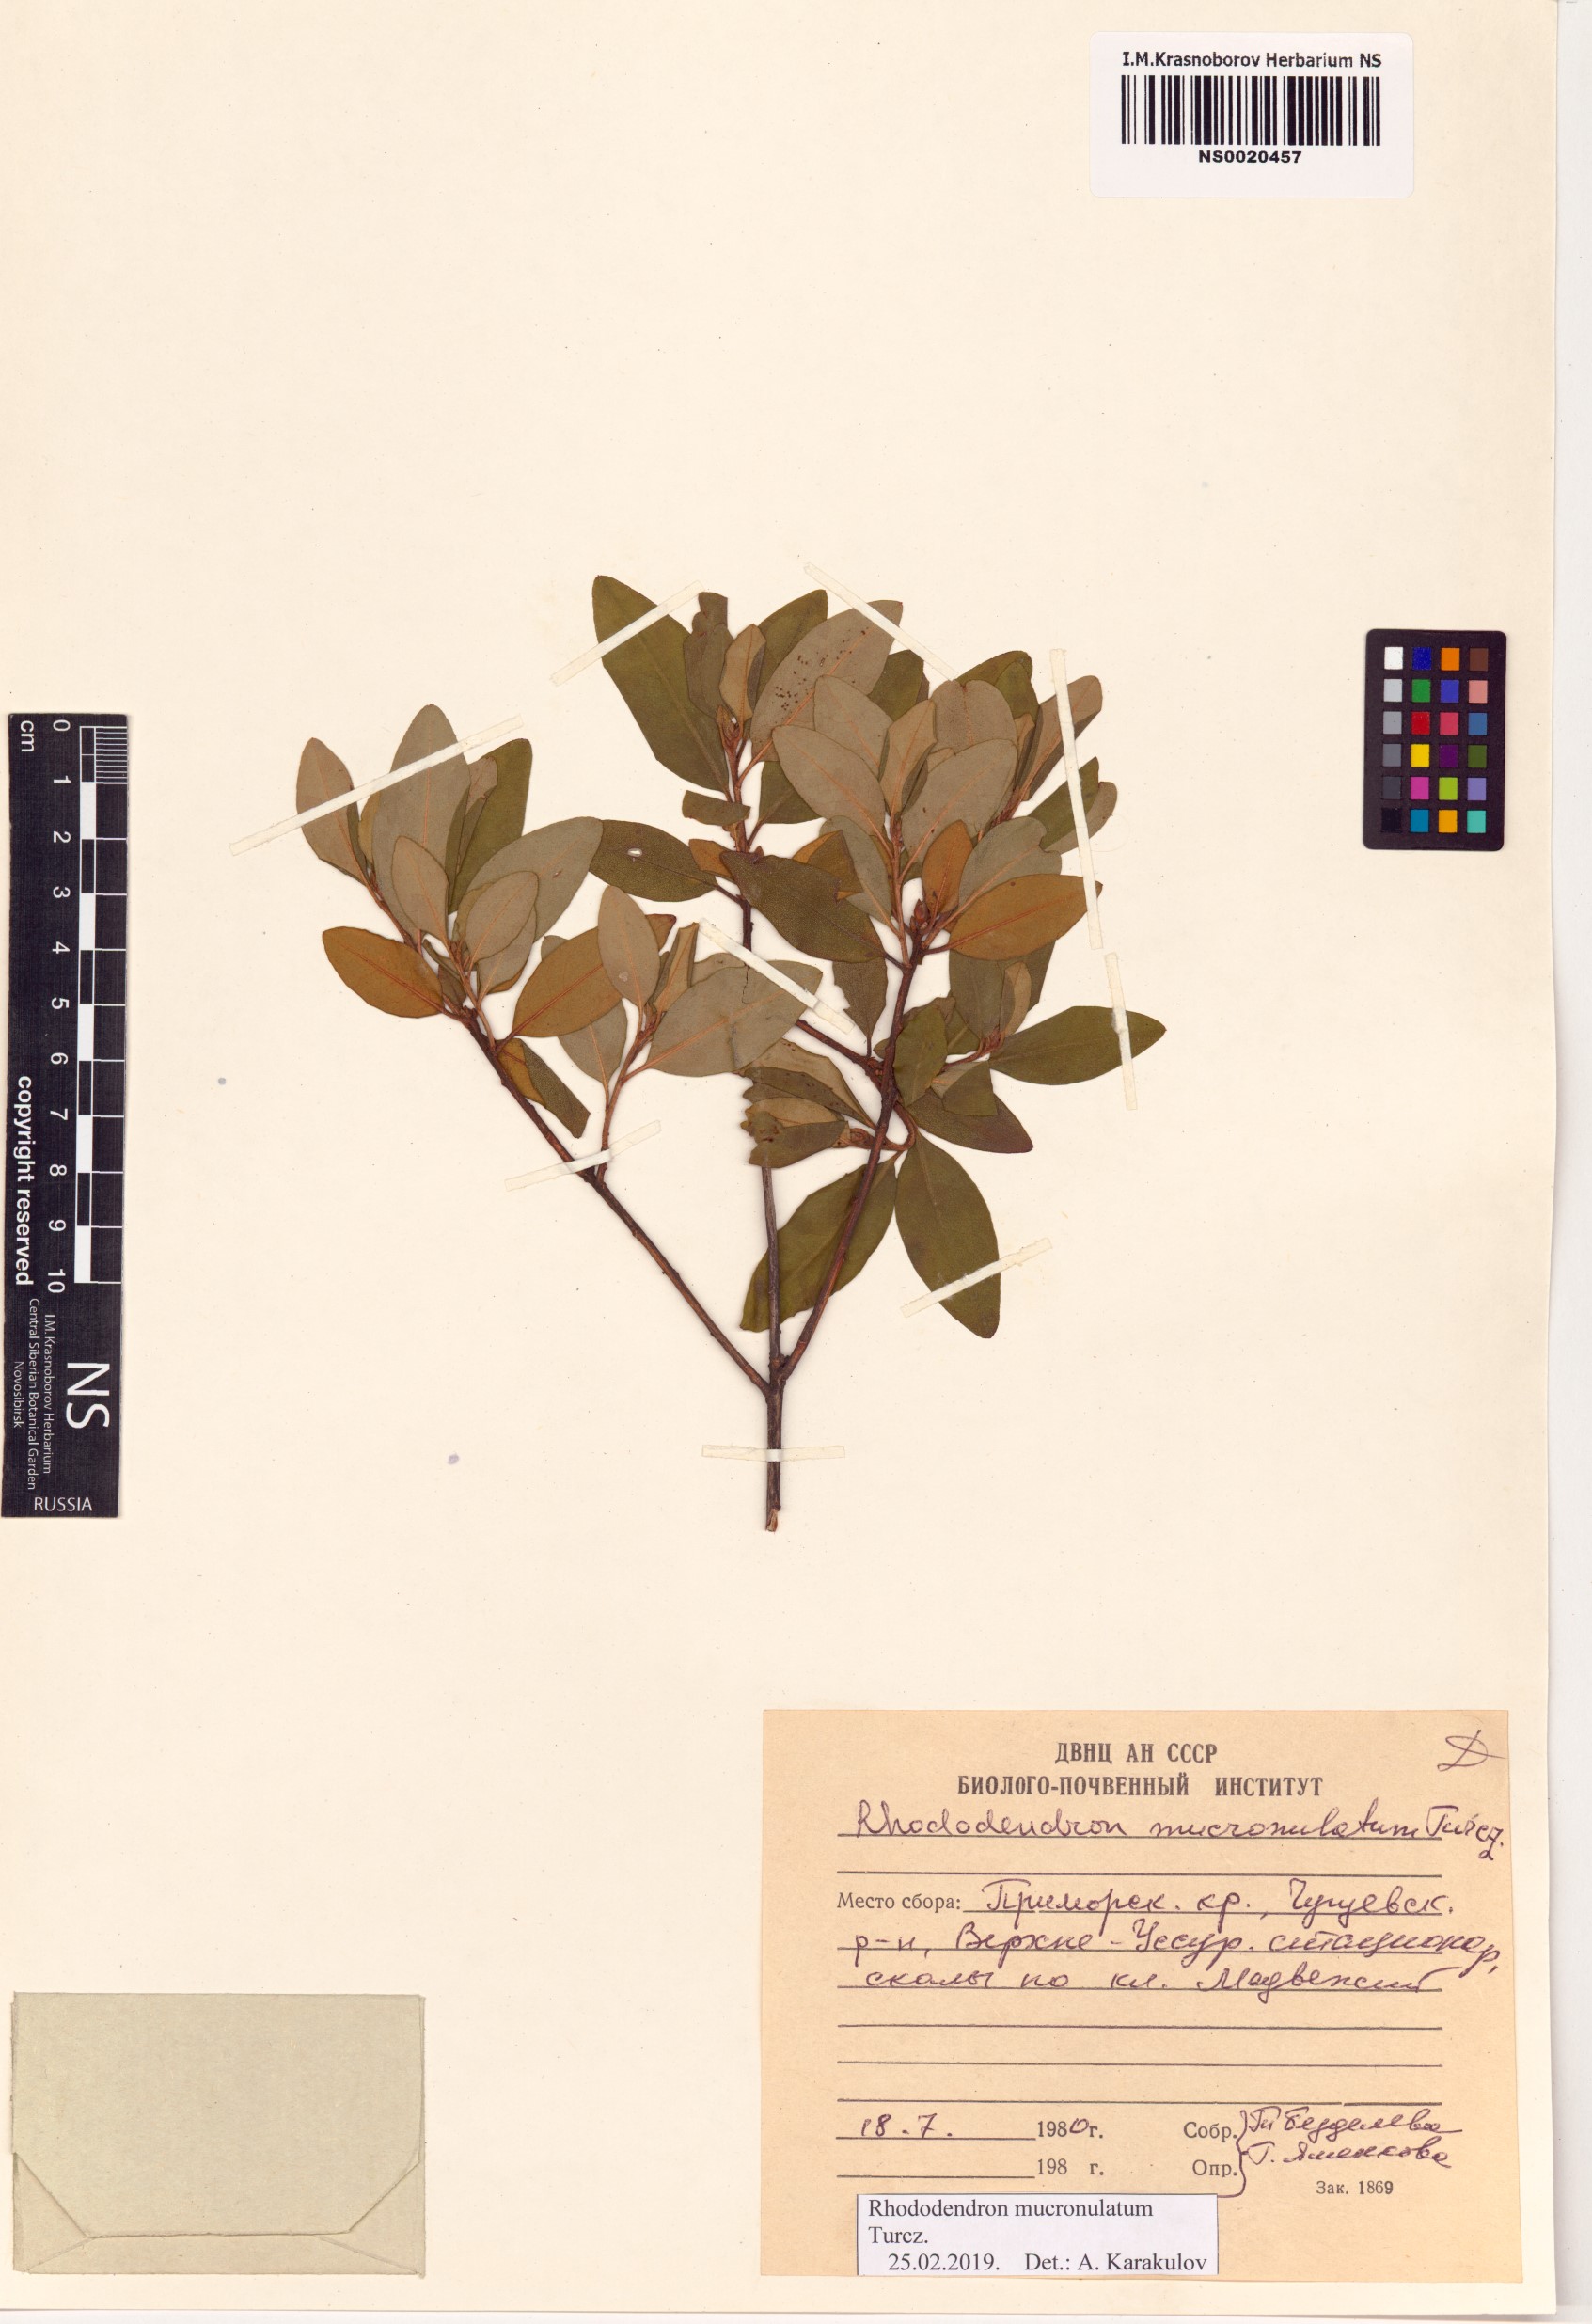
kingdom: Plantae
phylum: Tracheophyta
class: Magnoliopsida
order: Ericales
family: Ericaceae
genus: Rhododendron
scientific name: Rhododendron mucronulatum
